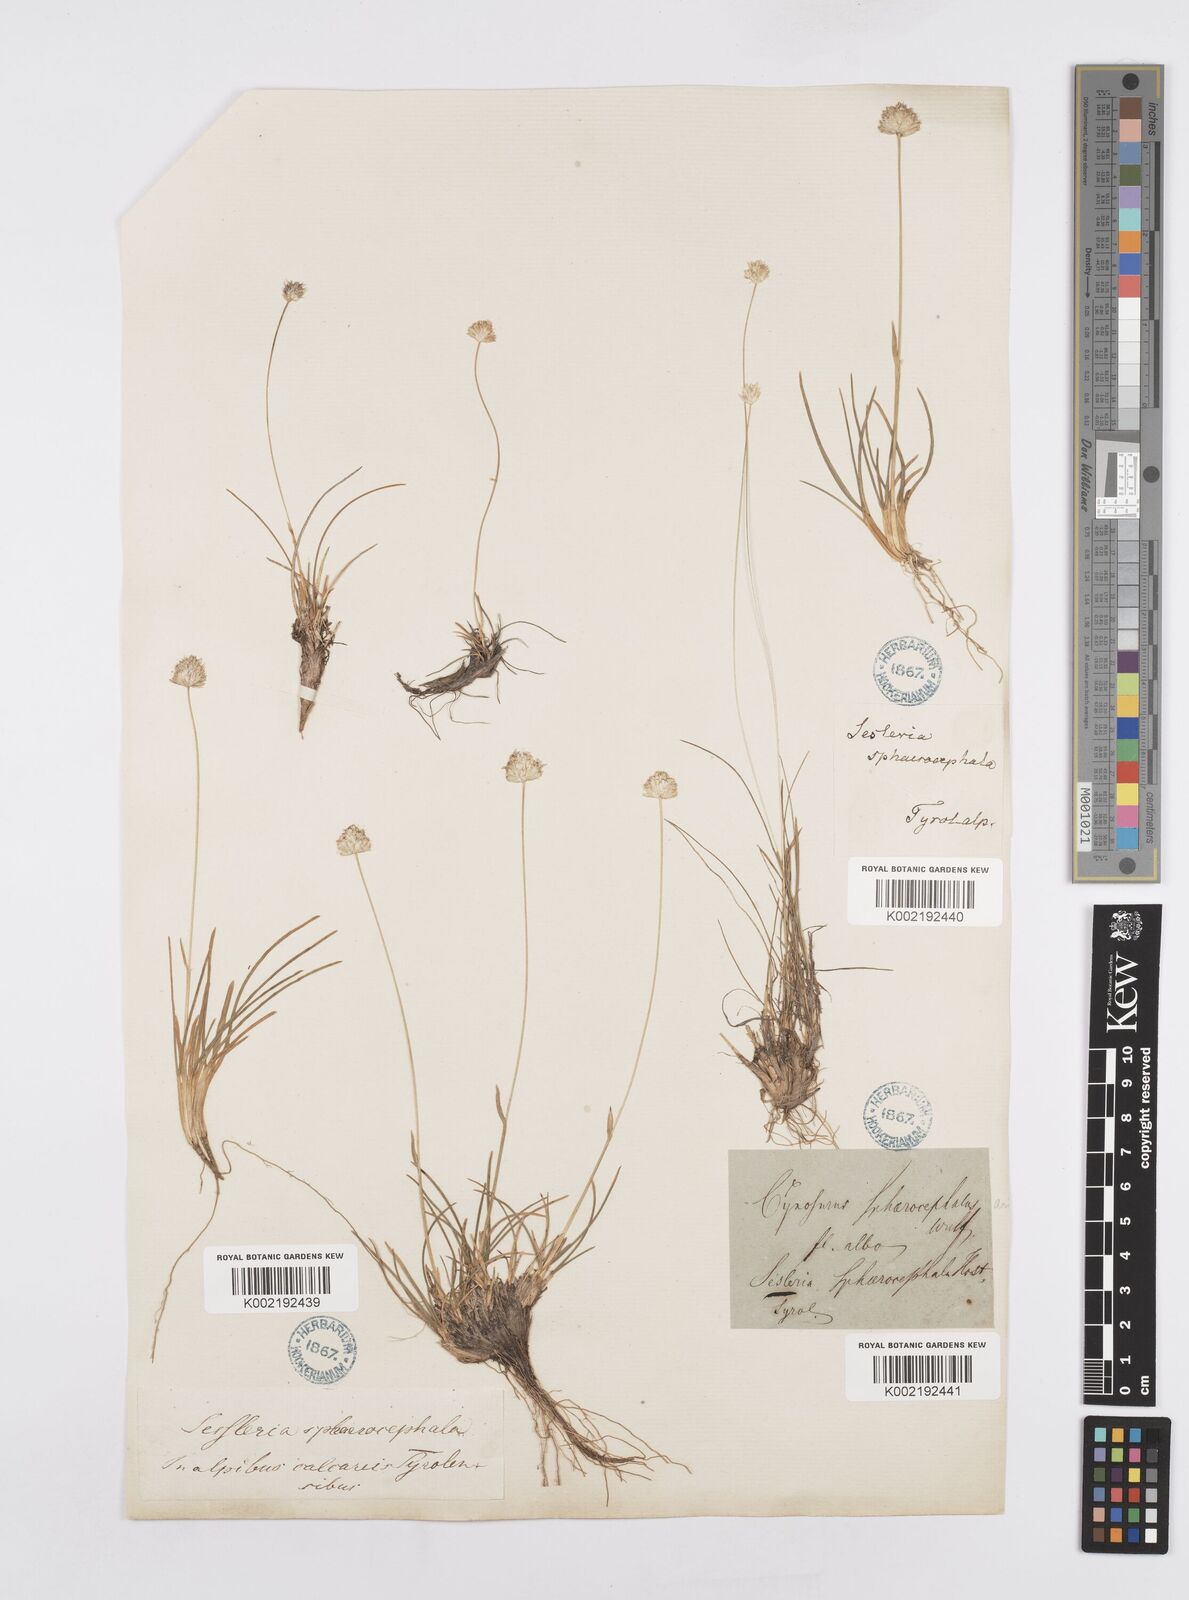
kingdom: Plantae
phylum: Tracheophyta
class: Liliopsida
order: Poales
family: Poaceae
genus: Sesleriella
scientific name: Sesleriella sphaerocephala
